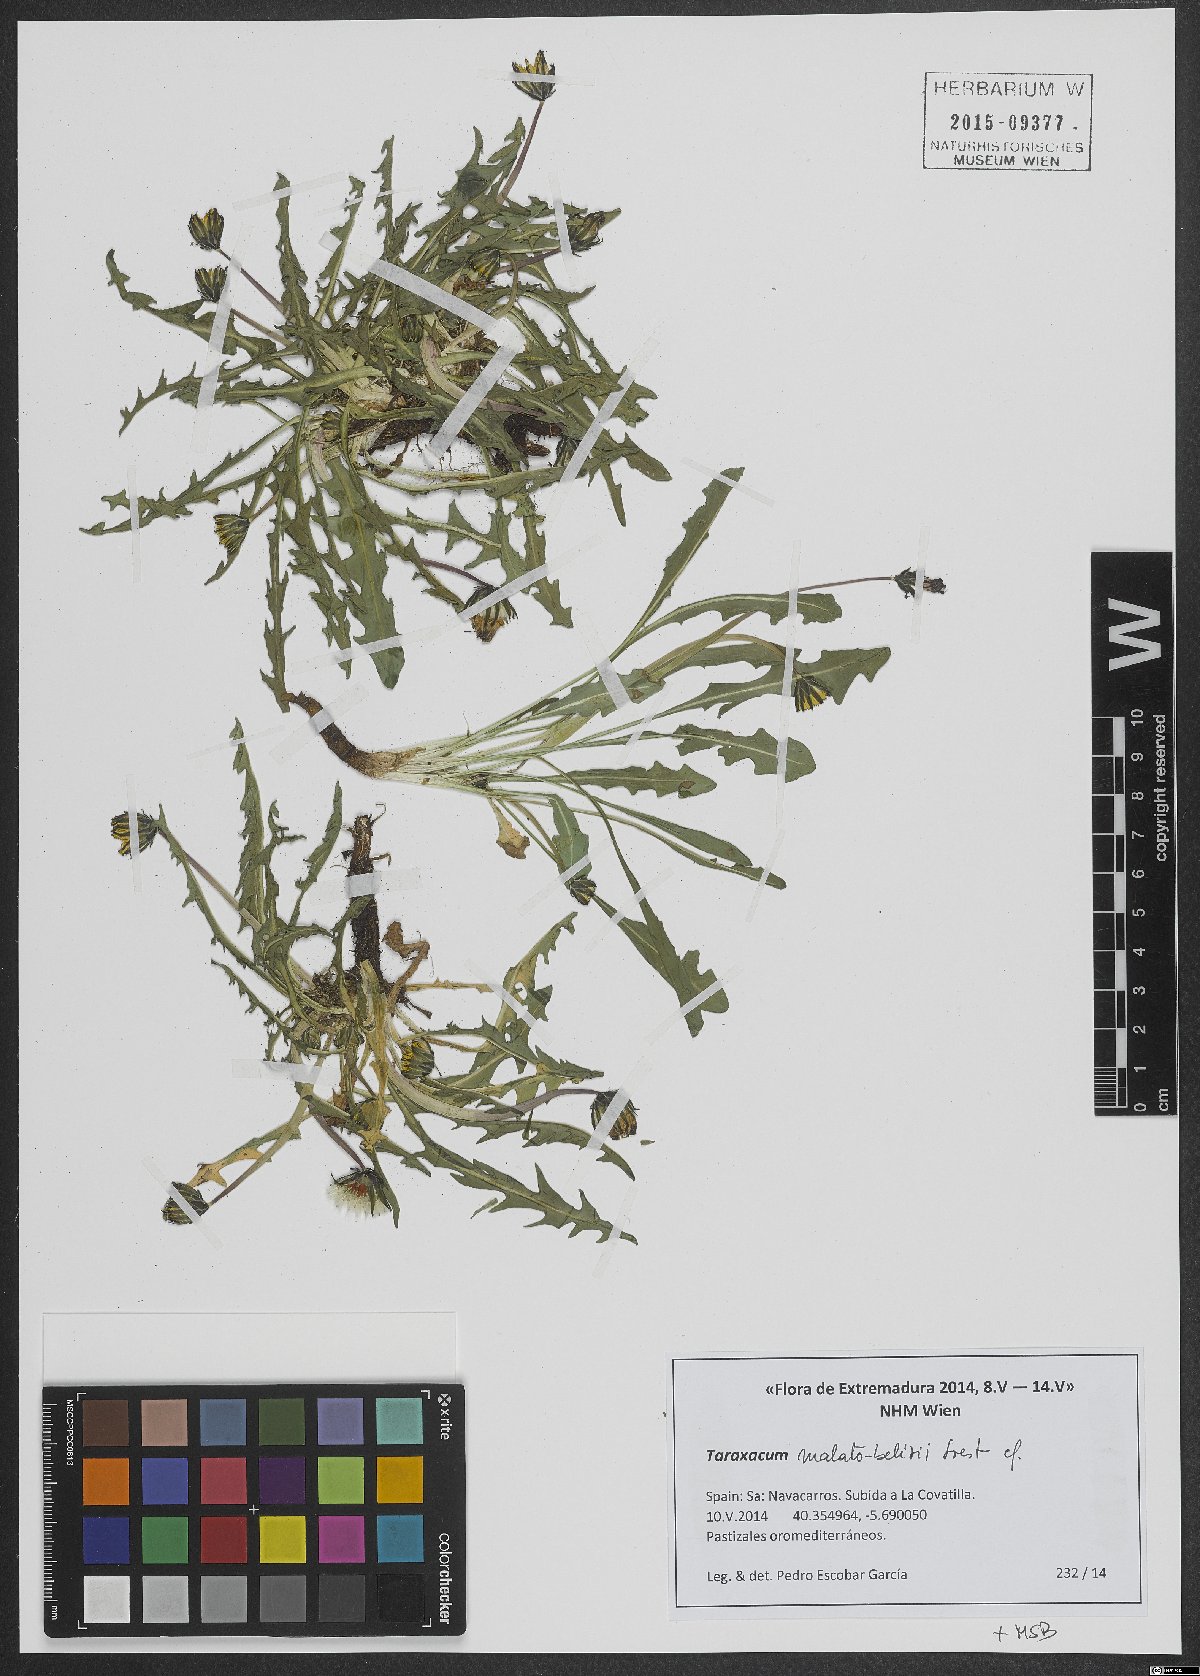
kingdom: Plantae
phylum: Tracheophyta
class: Magnoliopsida
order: Asterales
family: Asteraceae
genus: Taraxacum
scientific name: Taraxacum malato-belizii
